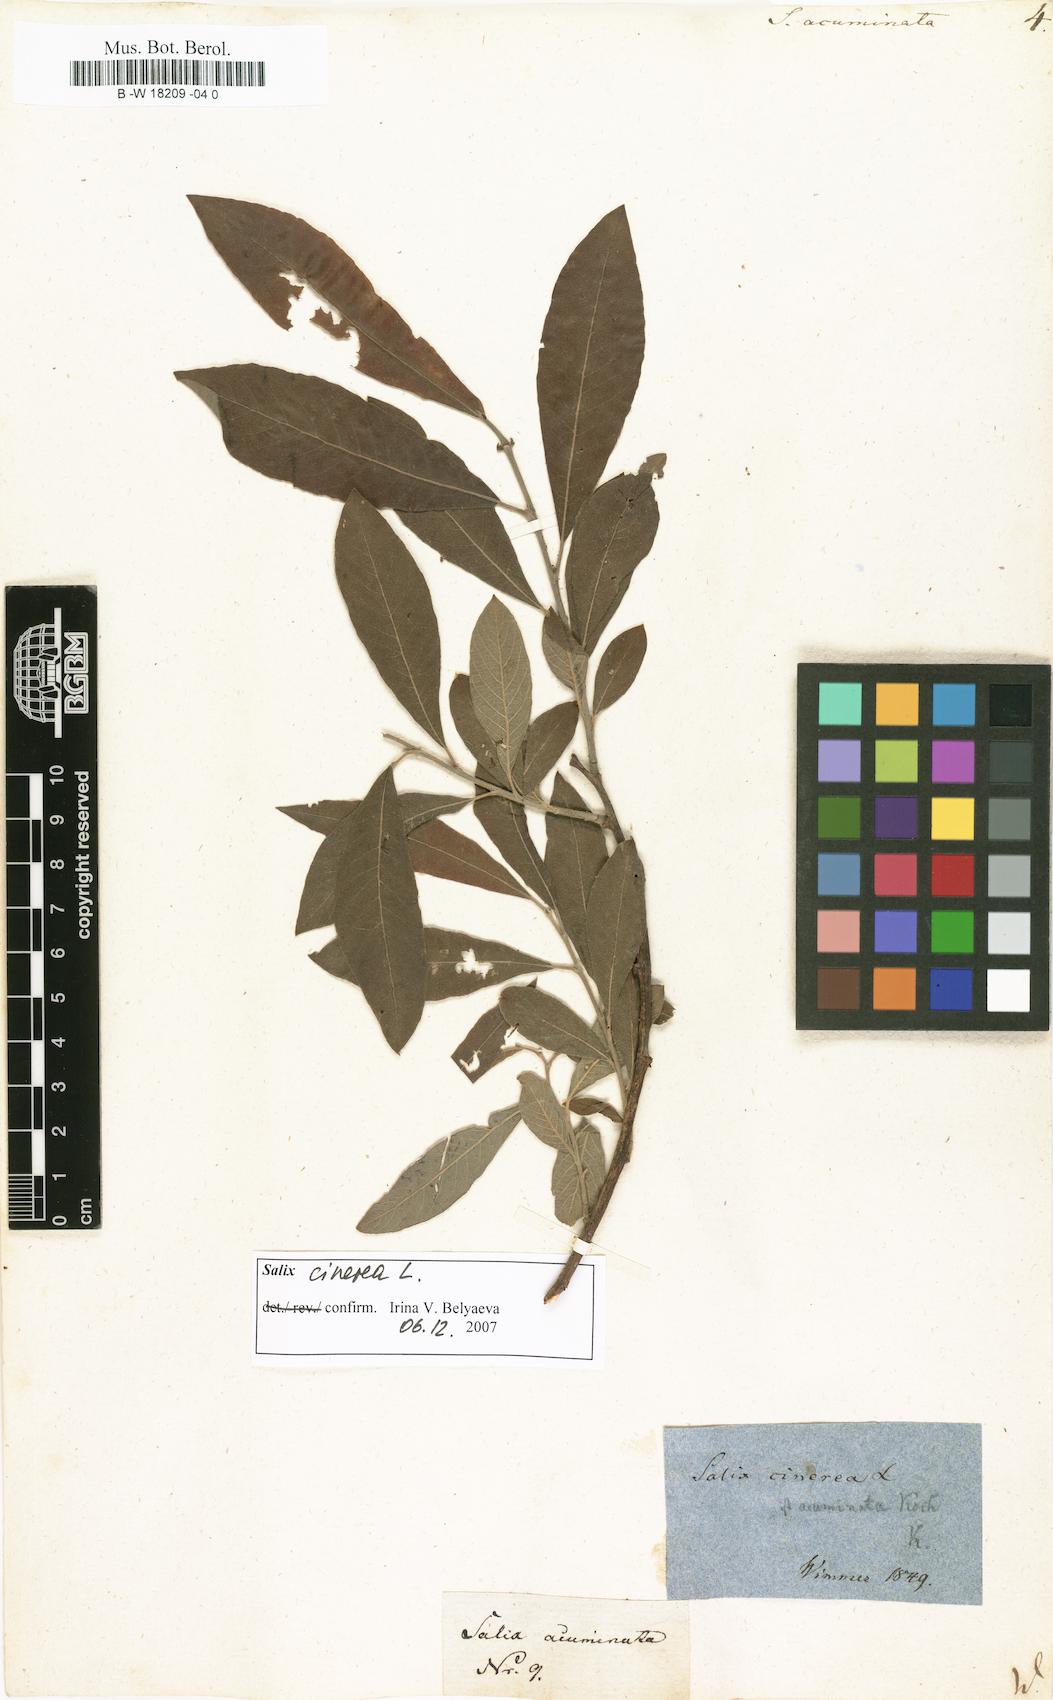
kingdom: Plantae
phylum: Tracheophyta
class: Magnoliopsida
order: Malpighiales
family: Salicaceae
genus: Salix
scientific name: Salix
